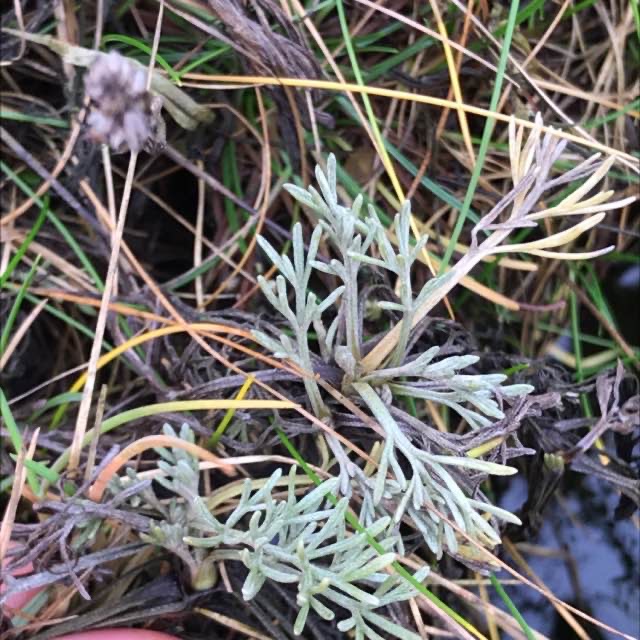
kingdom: Plantae
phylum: Tracheophyta
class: Magnoliopsida
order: Asterales
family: Asteraceae
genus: Artemisia
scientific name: Artemisia maritima
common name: Strandmalurt
